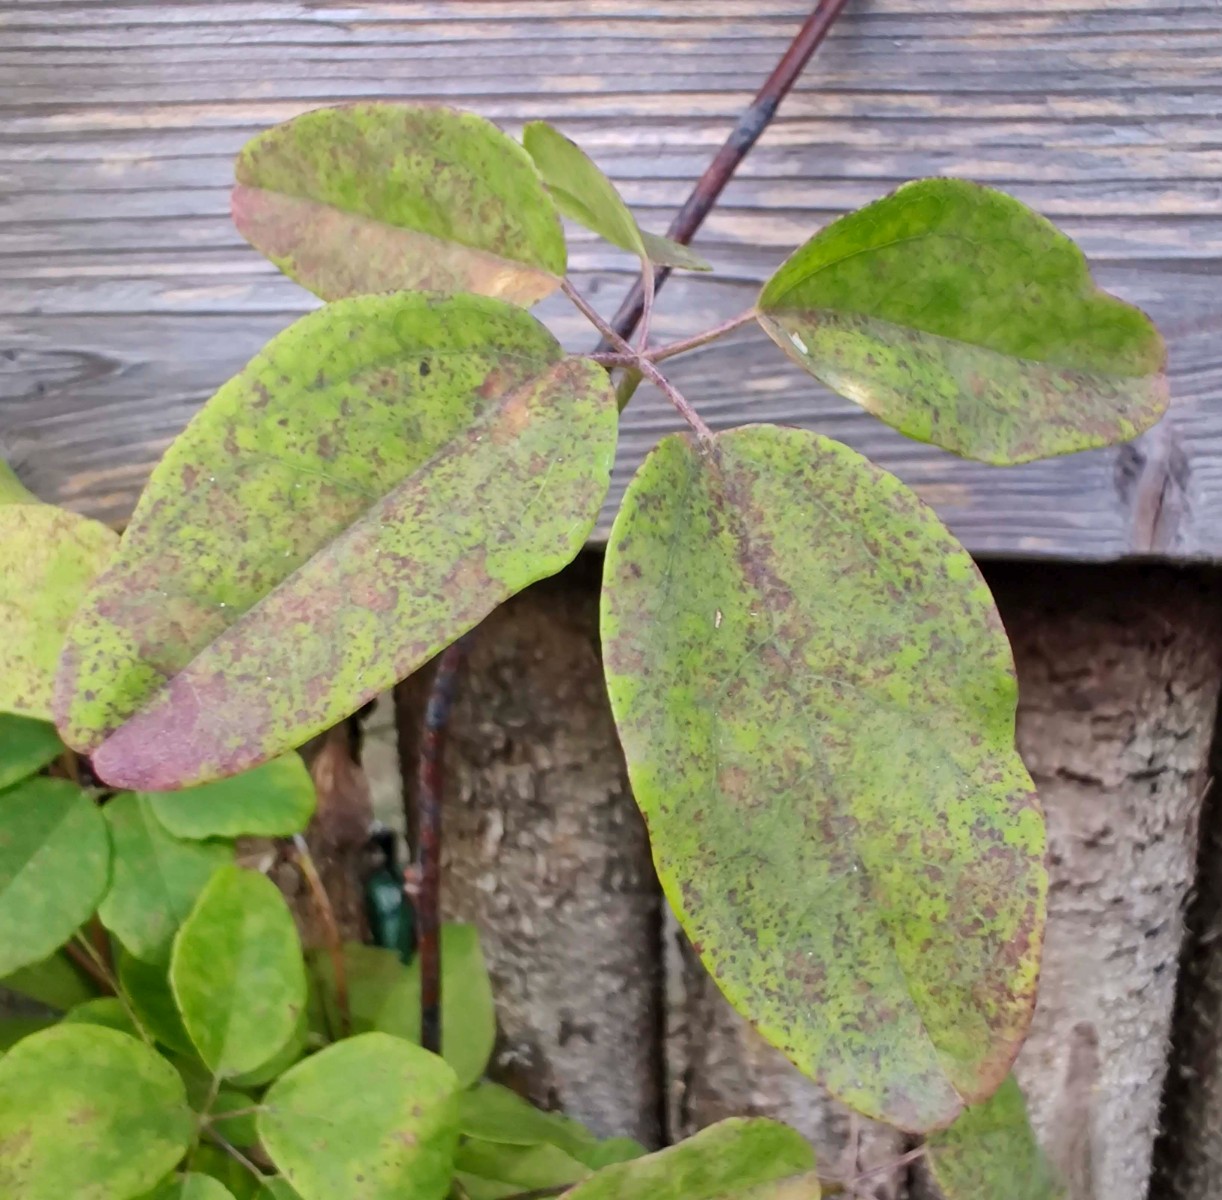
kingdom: Fungi
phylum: Ascomycota
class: Leotiomycetes
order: Helotiales
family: Erysiphaceae
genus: Erysiphe
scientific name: Erysiphe akebiae
